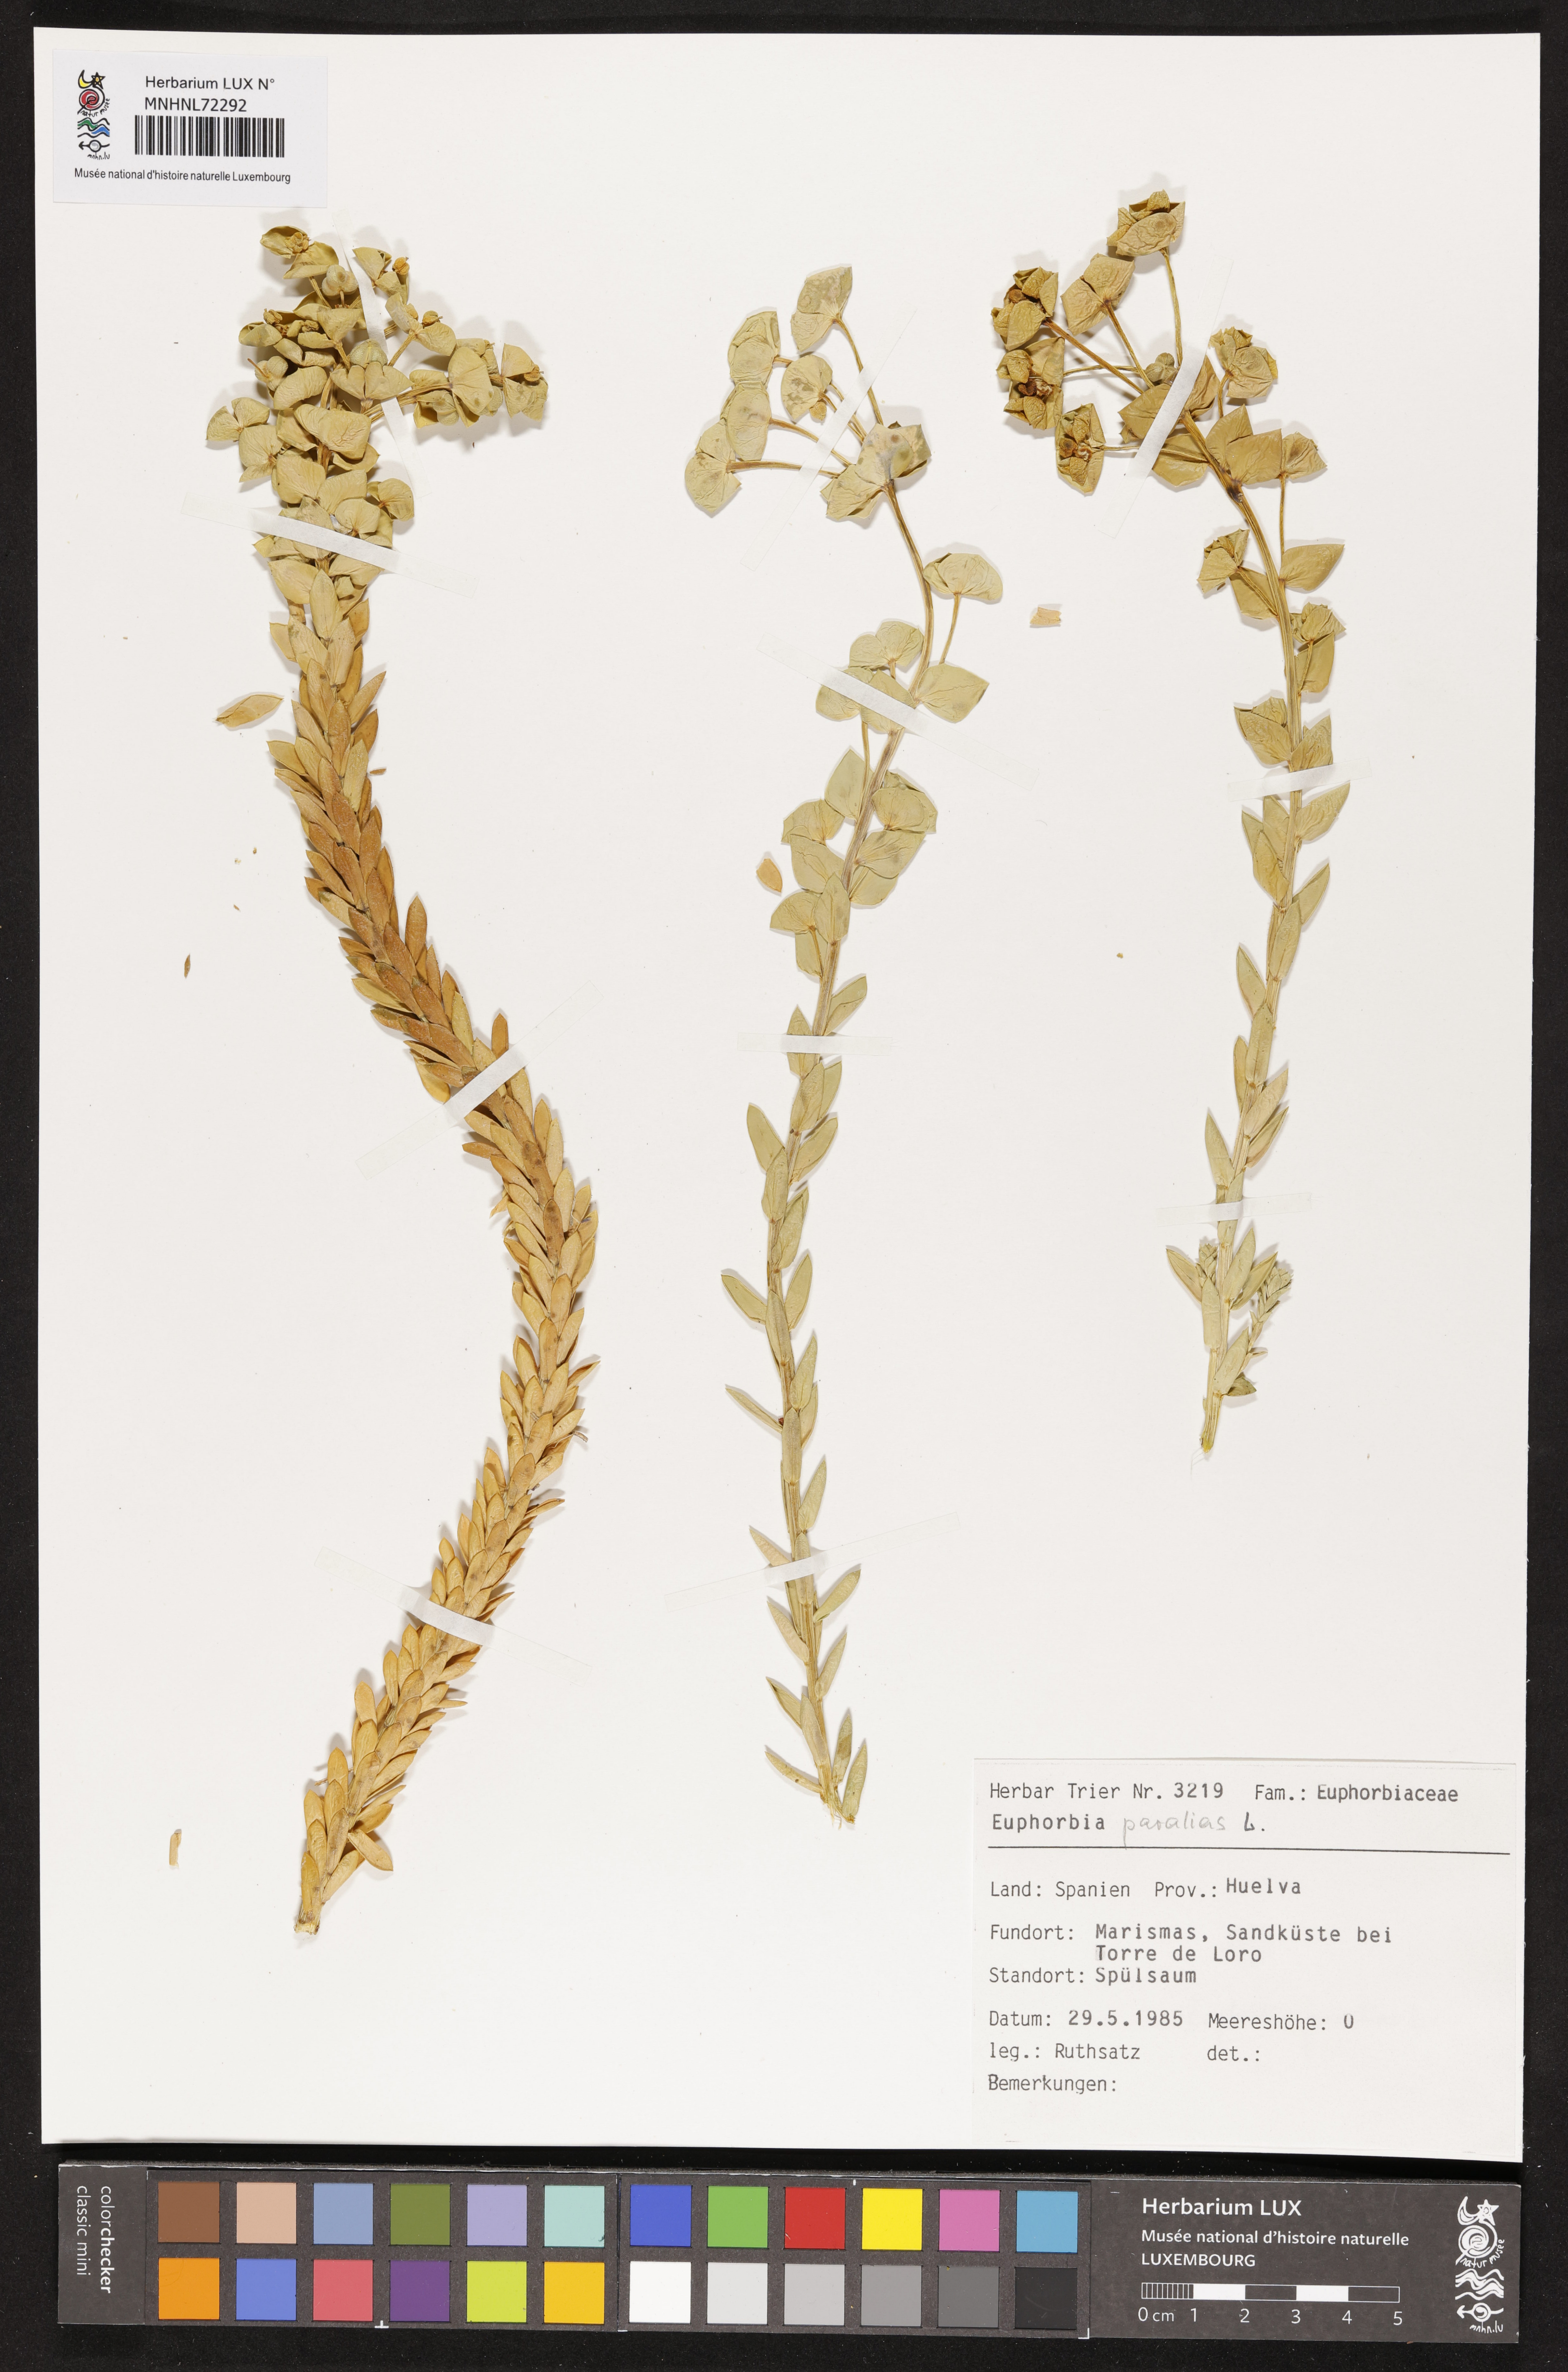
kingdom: Plantae
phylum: Tracheophyta
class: Magnoliopsida
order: Malpighiales
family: Euphorbiaceae
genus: Euphorbia
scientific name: Euphorbia paralias
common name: Sea spurge
